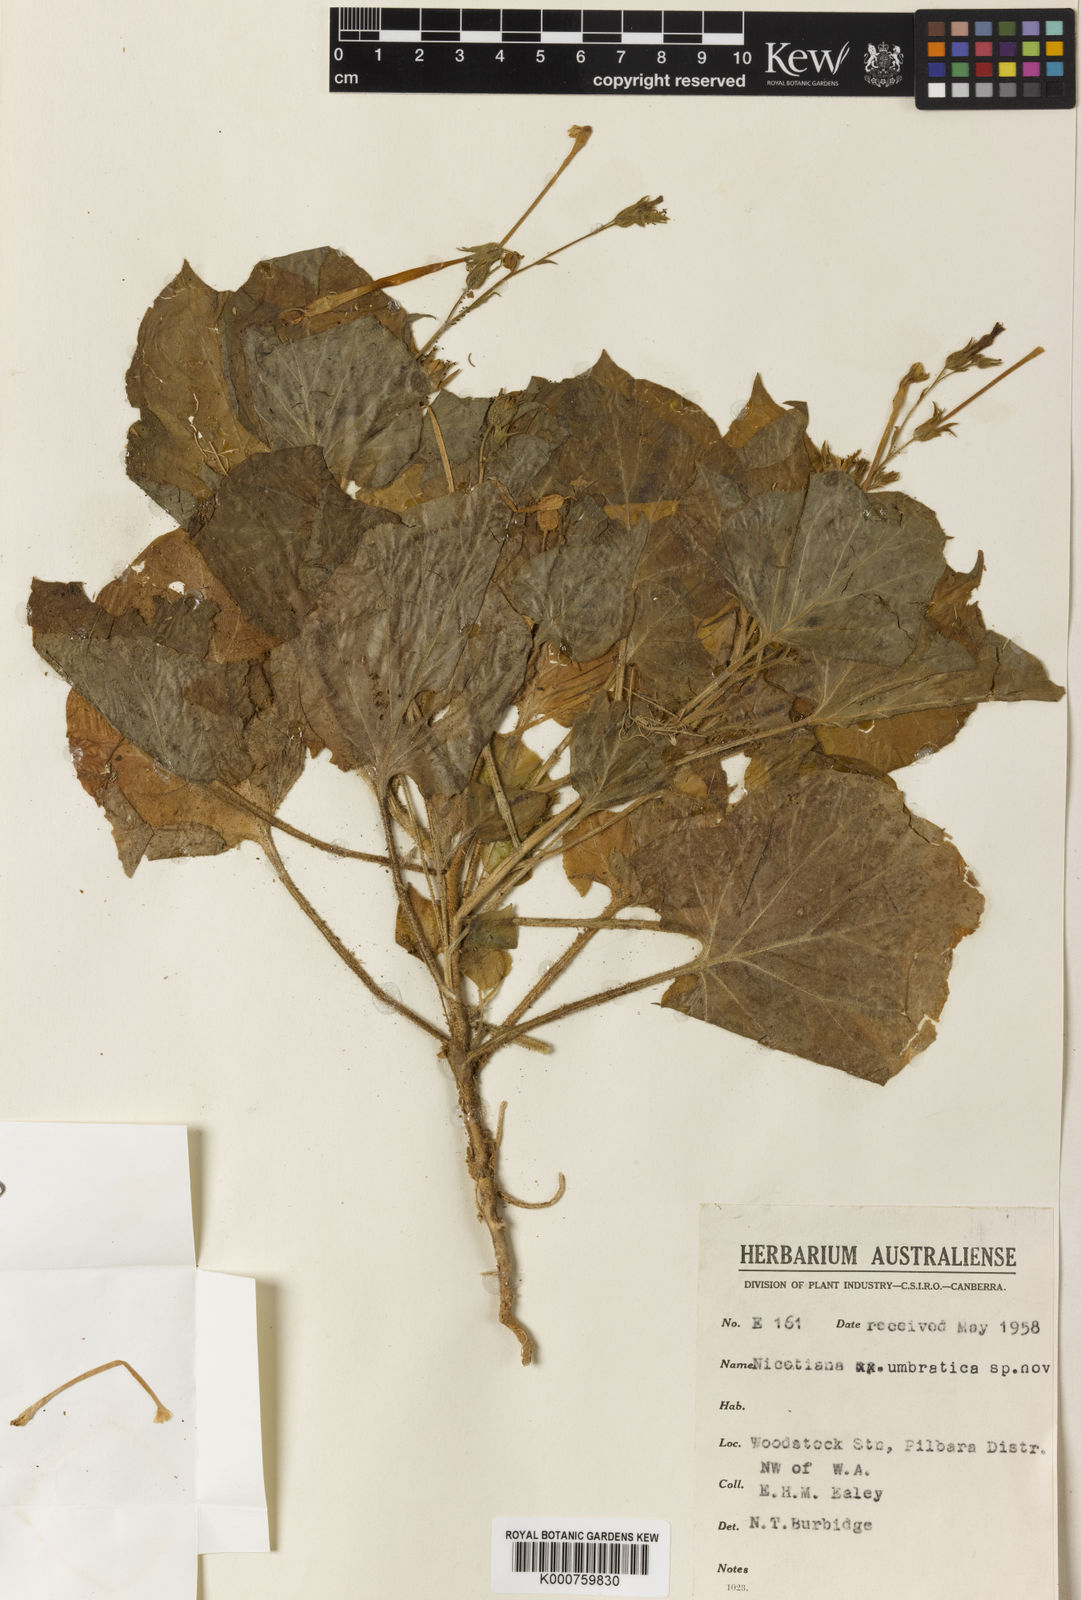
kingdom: Plantae
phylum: Tracheophyta
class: Magnoliopsida
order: Solanales
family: Solanaceae
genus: Nicotiana
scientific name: Nicotiana umbratica
